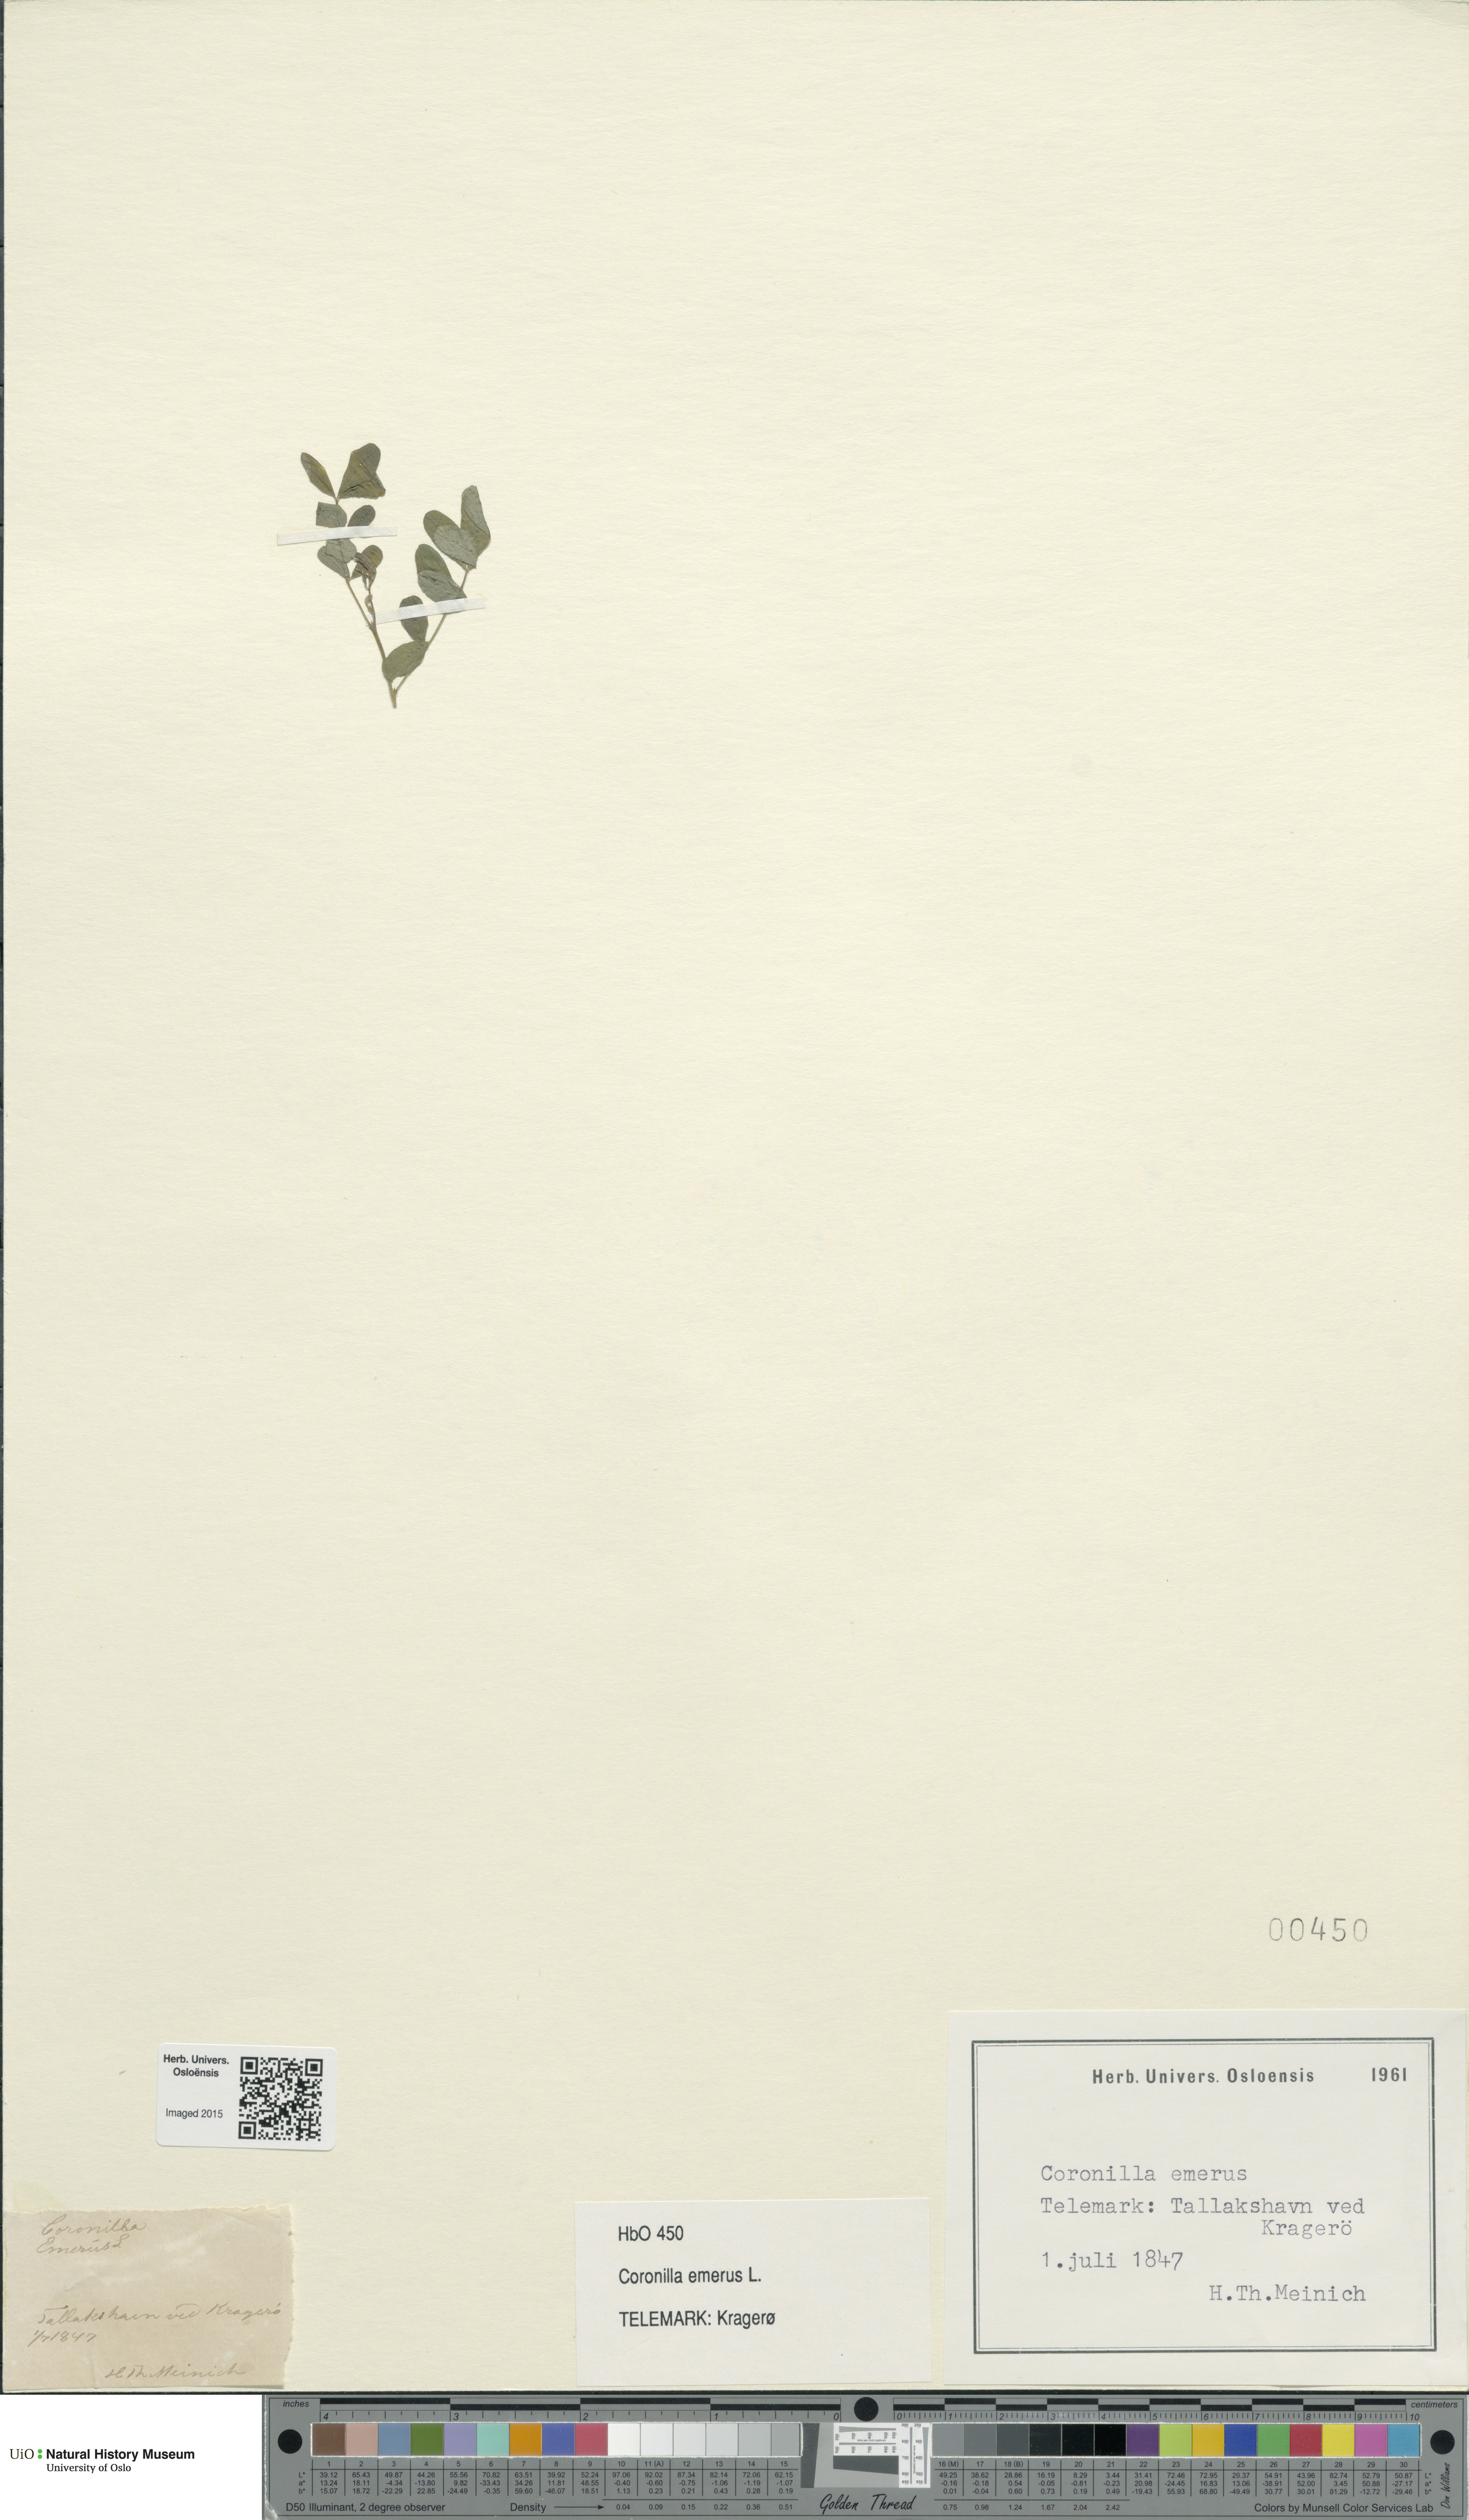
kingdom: Plantae
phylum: Tracheophyta
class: Magnoliopsida
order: Fabales
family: Fabaceae
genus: Hippocrepis
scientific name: Hippocrepis emerus
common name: Scorpion senna
